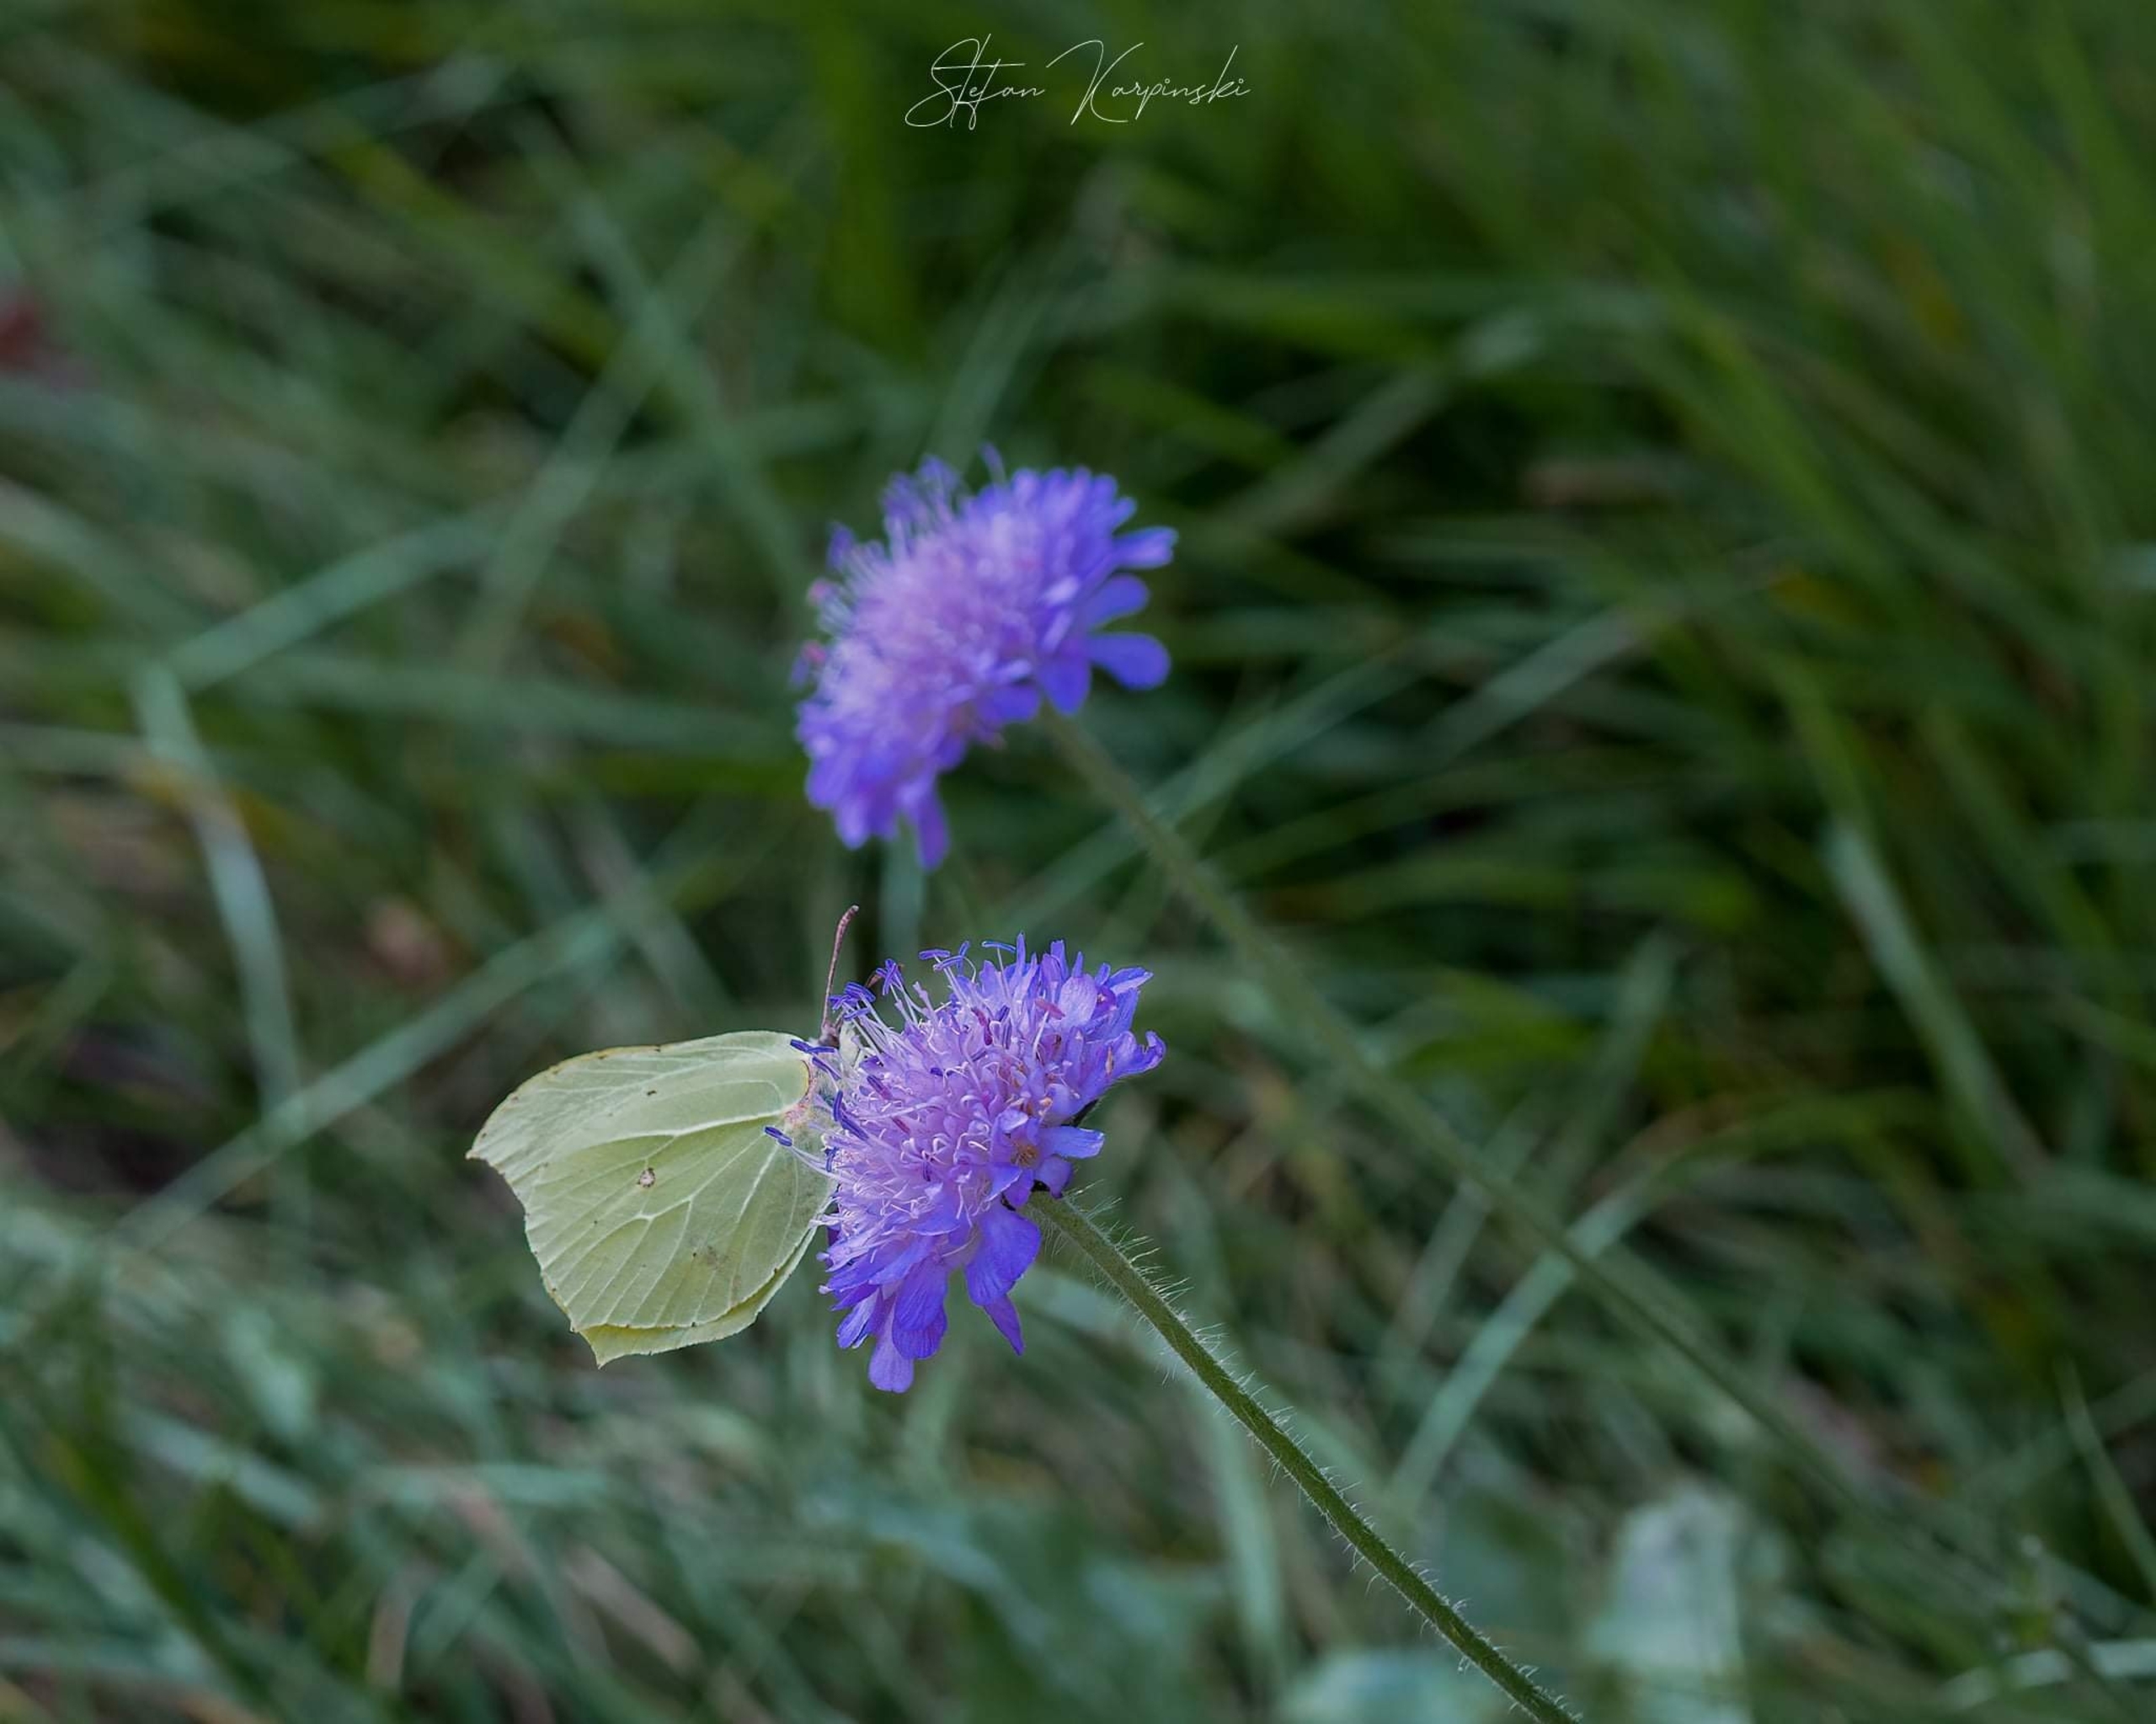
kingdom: Animalia
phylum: Arthropoda
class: Insecta
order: Lepidoptera
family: Pieridae
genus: Gonepteryx
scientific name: Gonepteryx rhamni
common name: Citronsommerfugl
